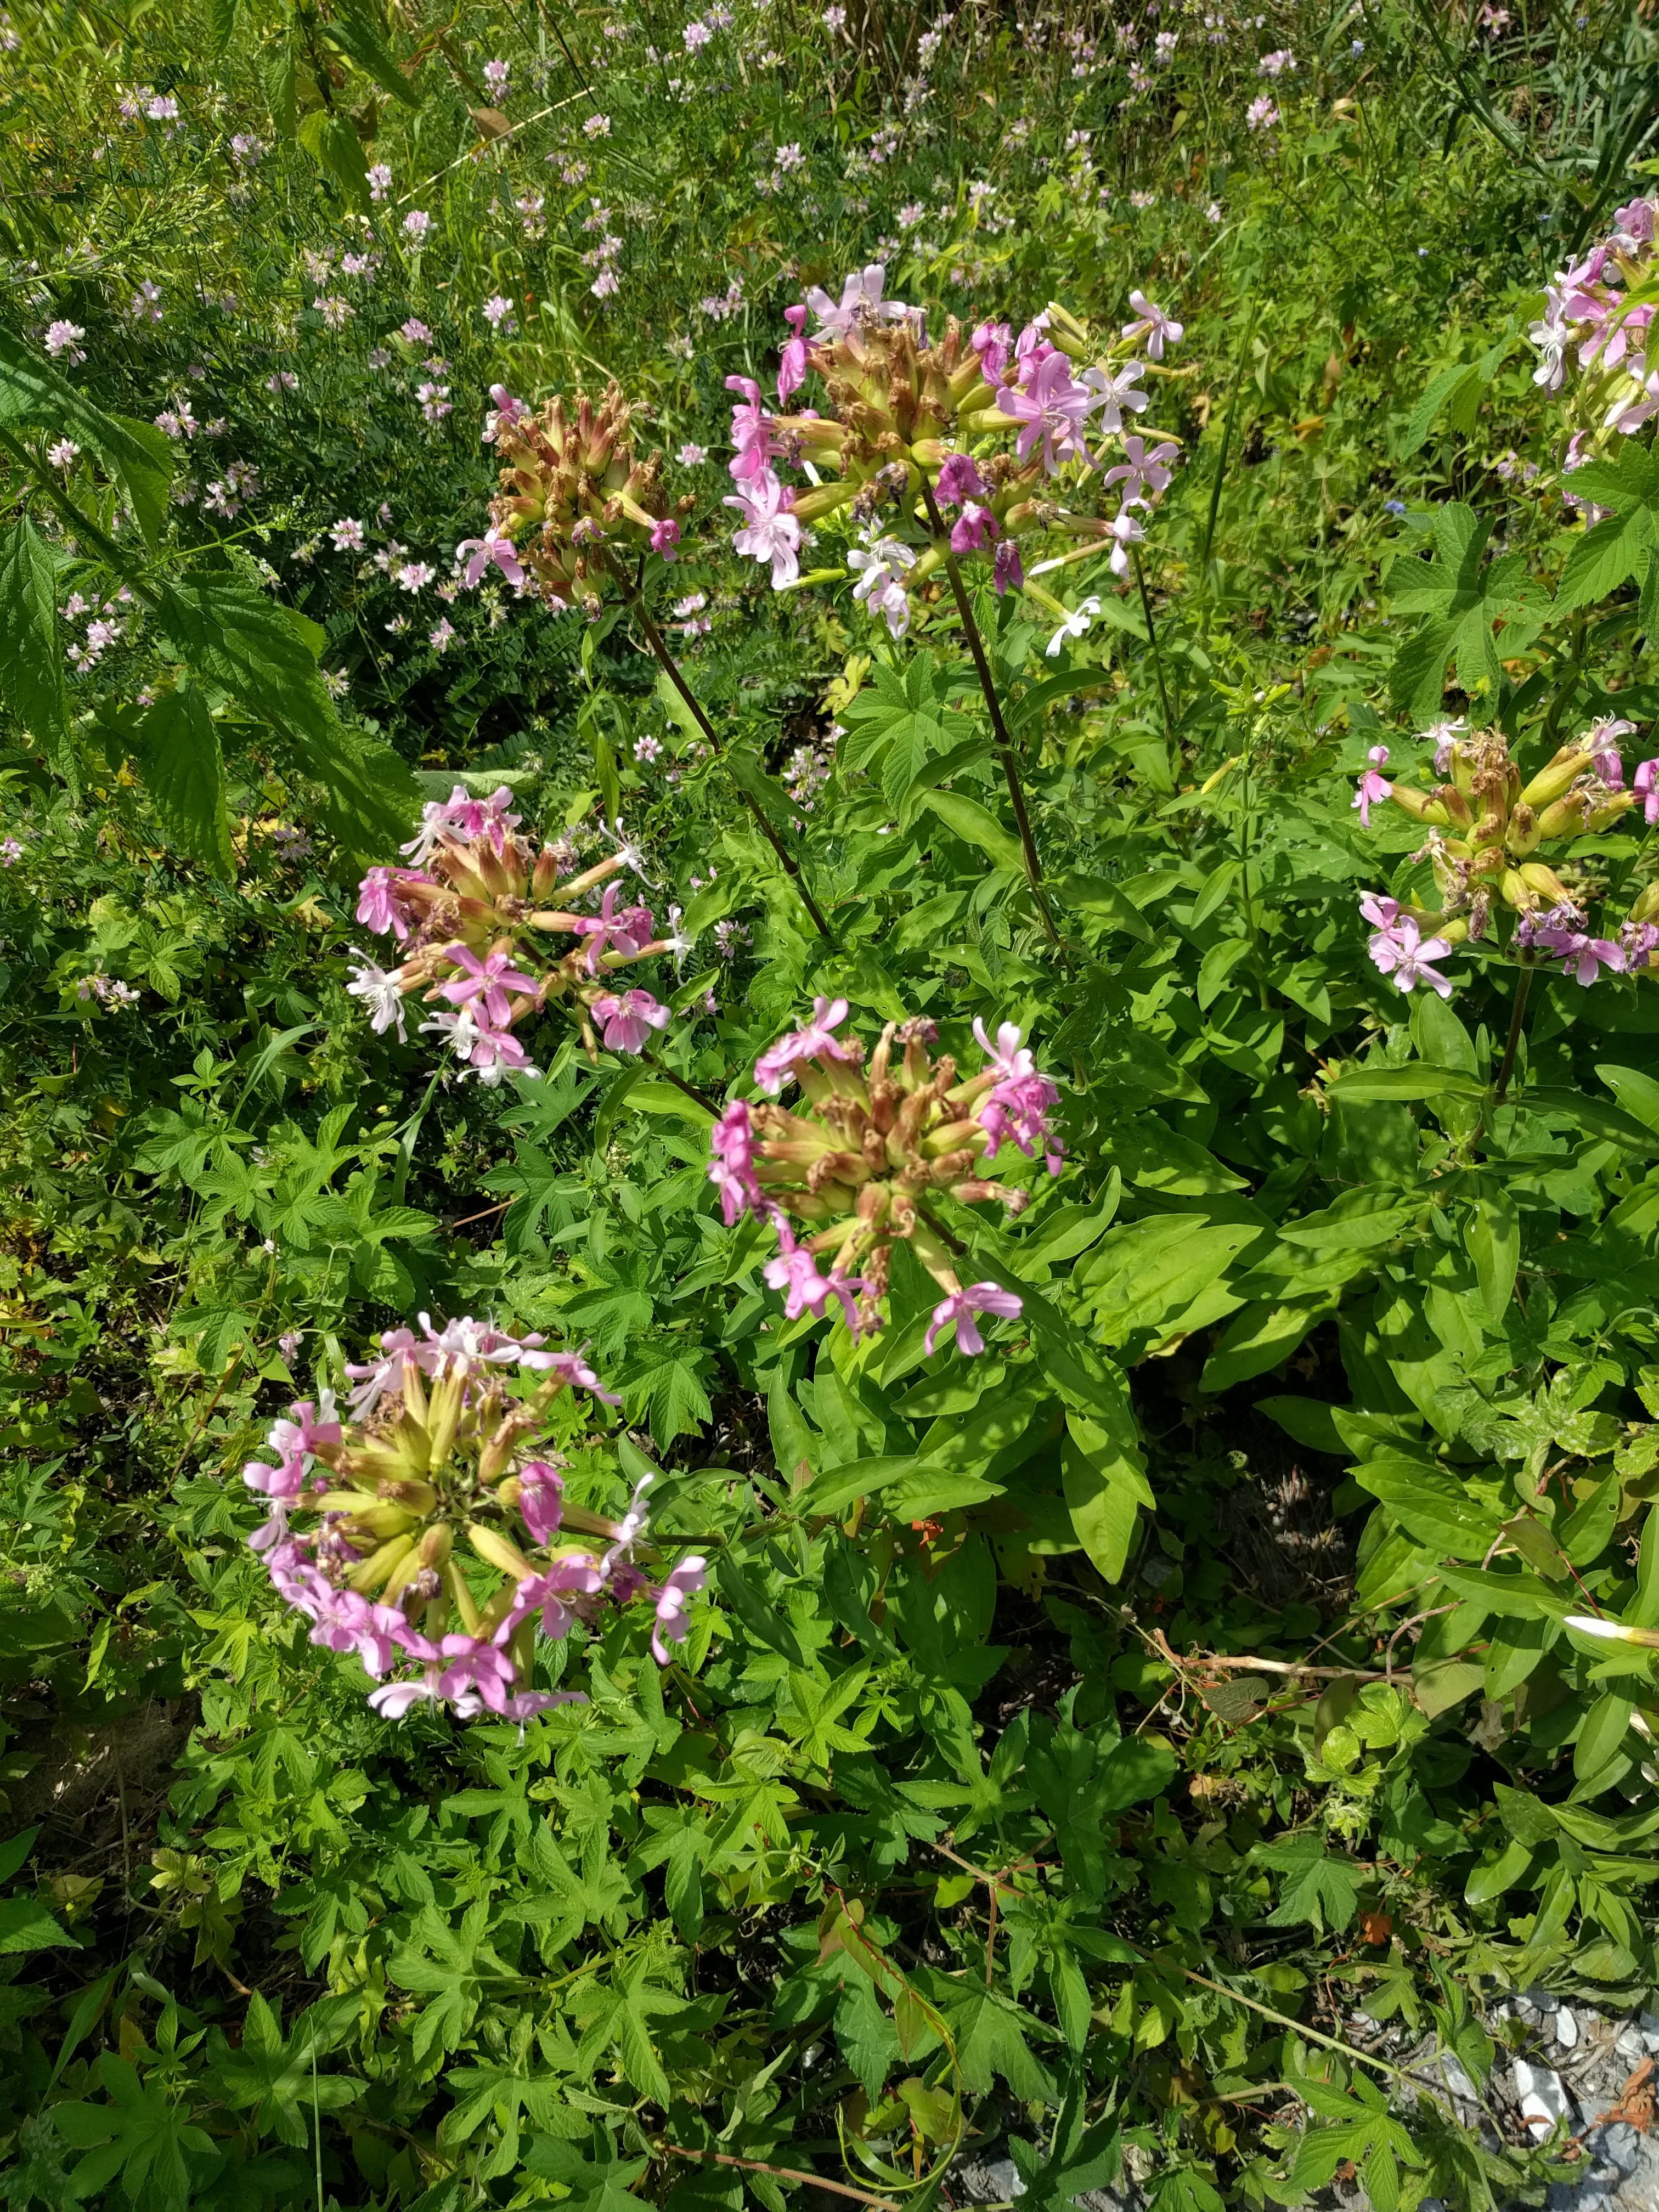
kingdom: Plantae
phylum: Tracheophyta
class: Magnoliopsida
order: Caryophyllales
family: Caryophyllaceae
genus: Saponaria
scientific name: Saponaria officinalis
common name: Soapwort
